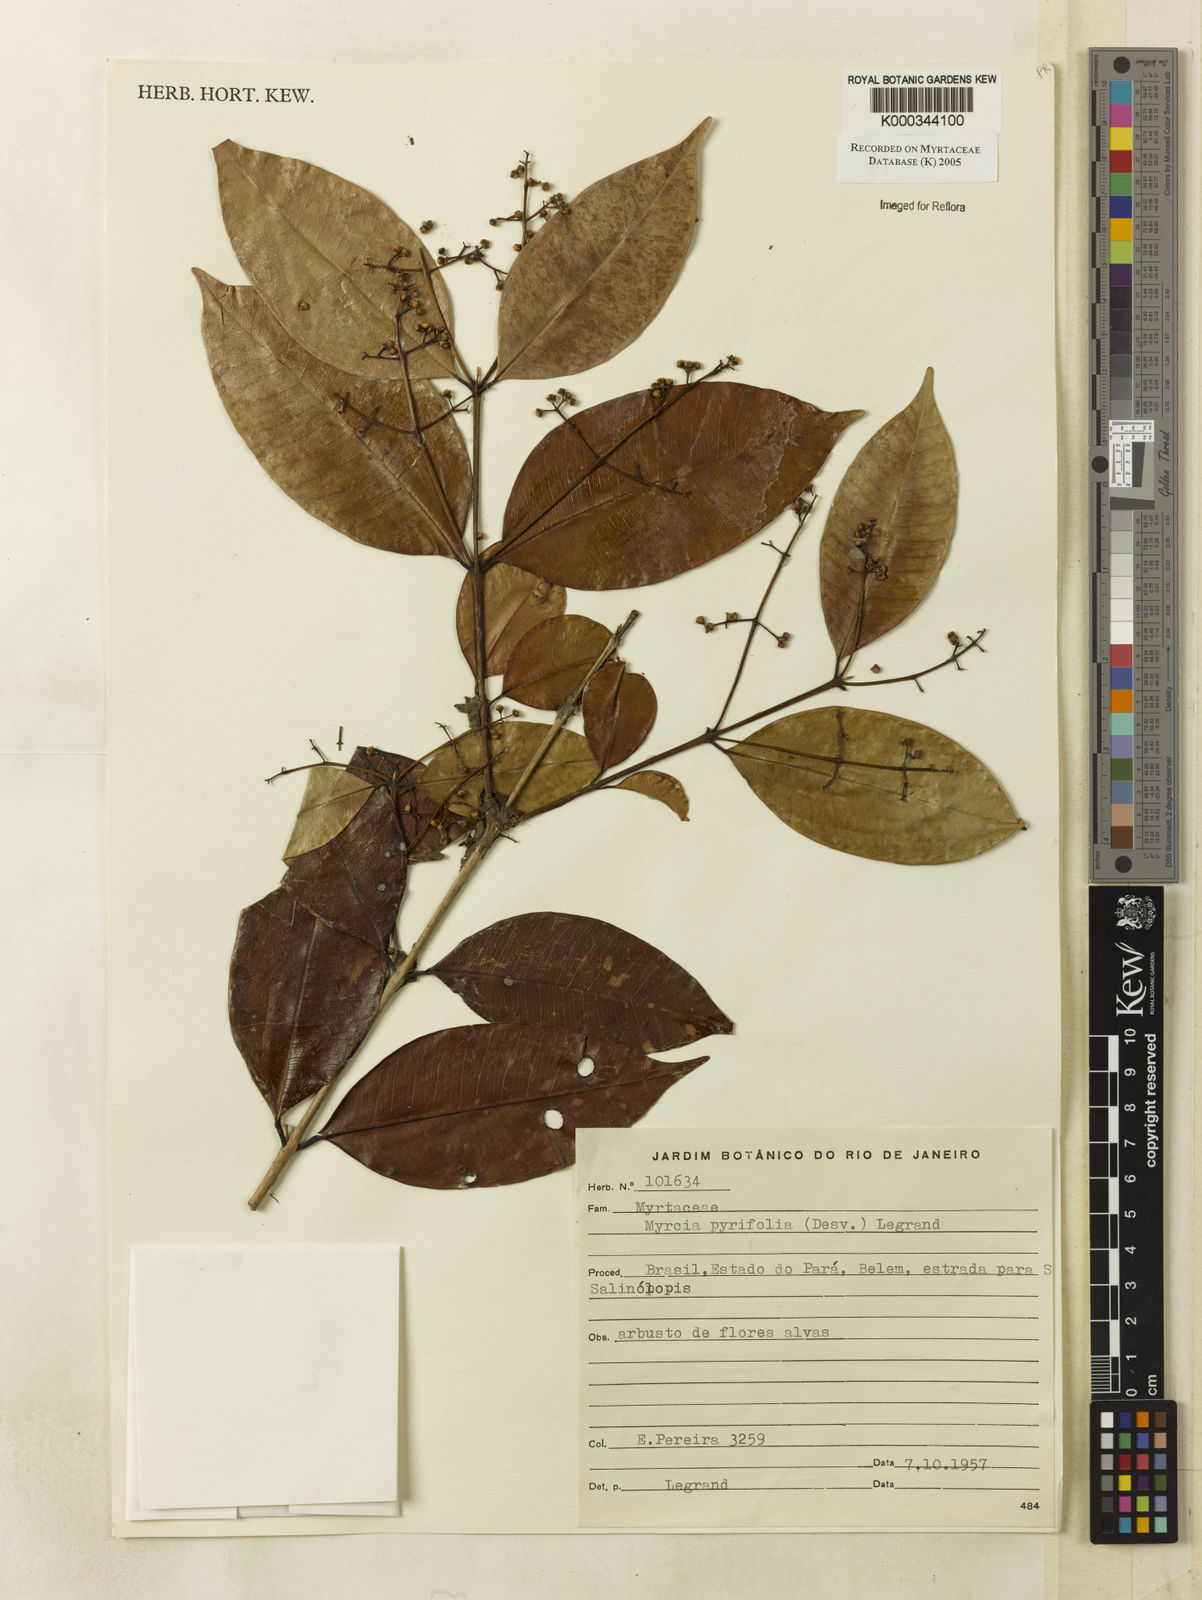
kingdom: Plantae
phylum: Tracheophyta
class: Magnoliopsida
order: Myrtales
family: Myrtaceae
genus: Myrcia
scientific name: Myrcia pyrifolia
